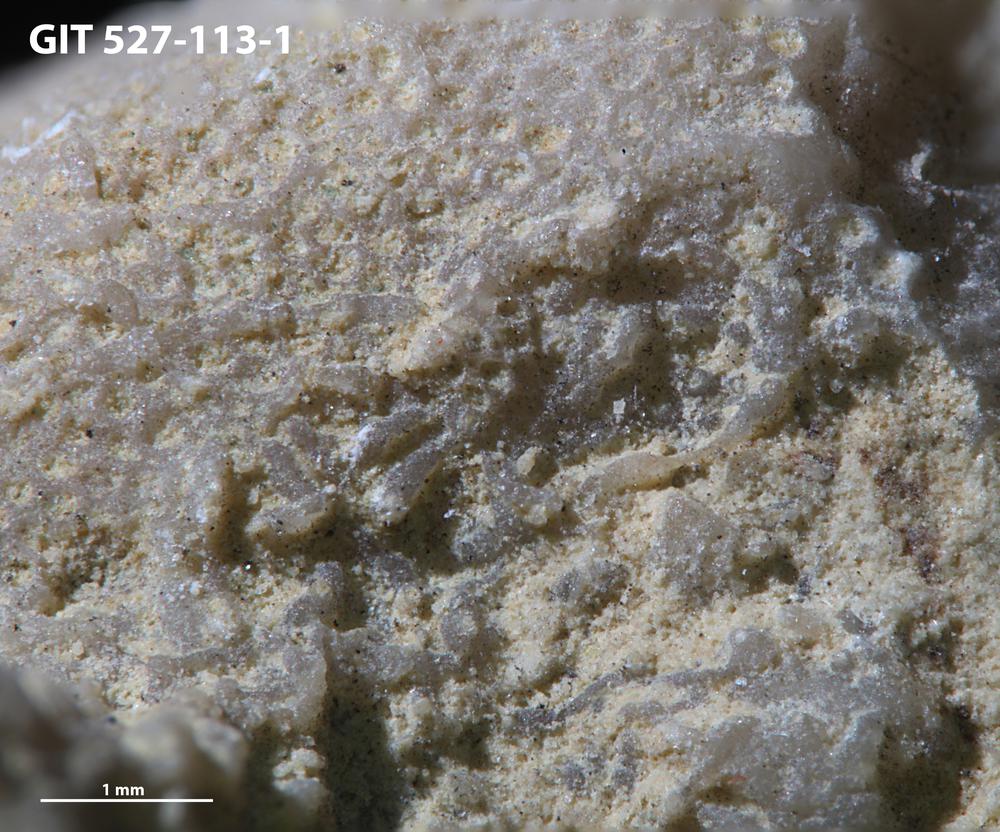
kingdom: Animalia
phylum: Bryozoa
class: Stenolaemata
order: Cyclostomatida
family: Corynotrypidae
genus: Corynotrypa
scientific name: Corynotrypa delicatula
